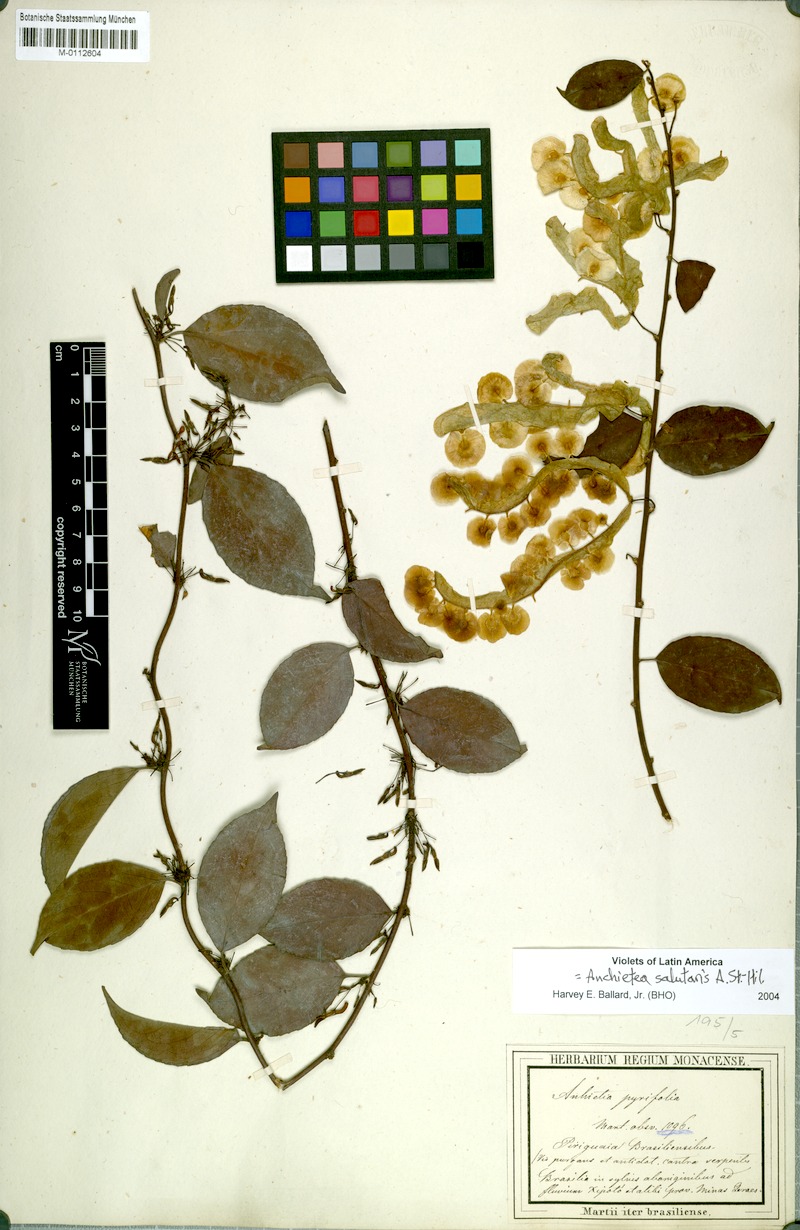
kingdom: Plantae
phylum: Tracheophyta
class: Magnoliopsida
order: Malpighiales
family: Violaceae
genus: Anchietea
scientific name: Anchietea pyrifolia
